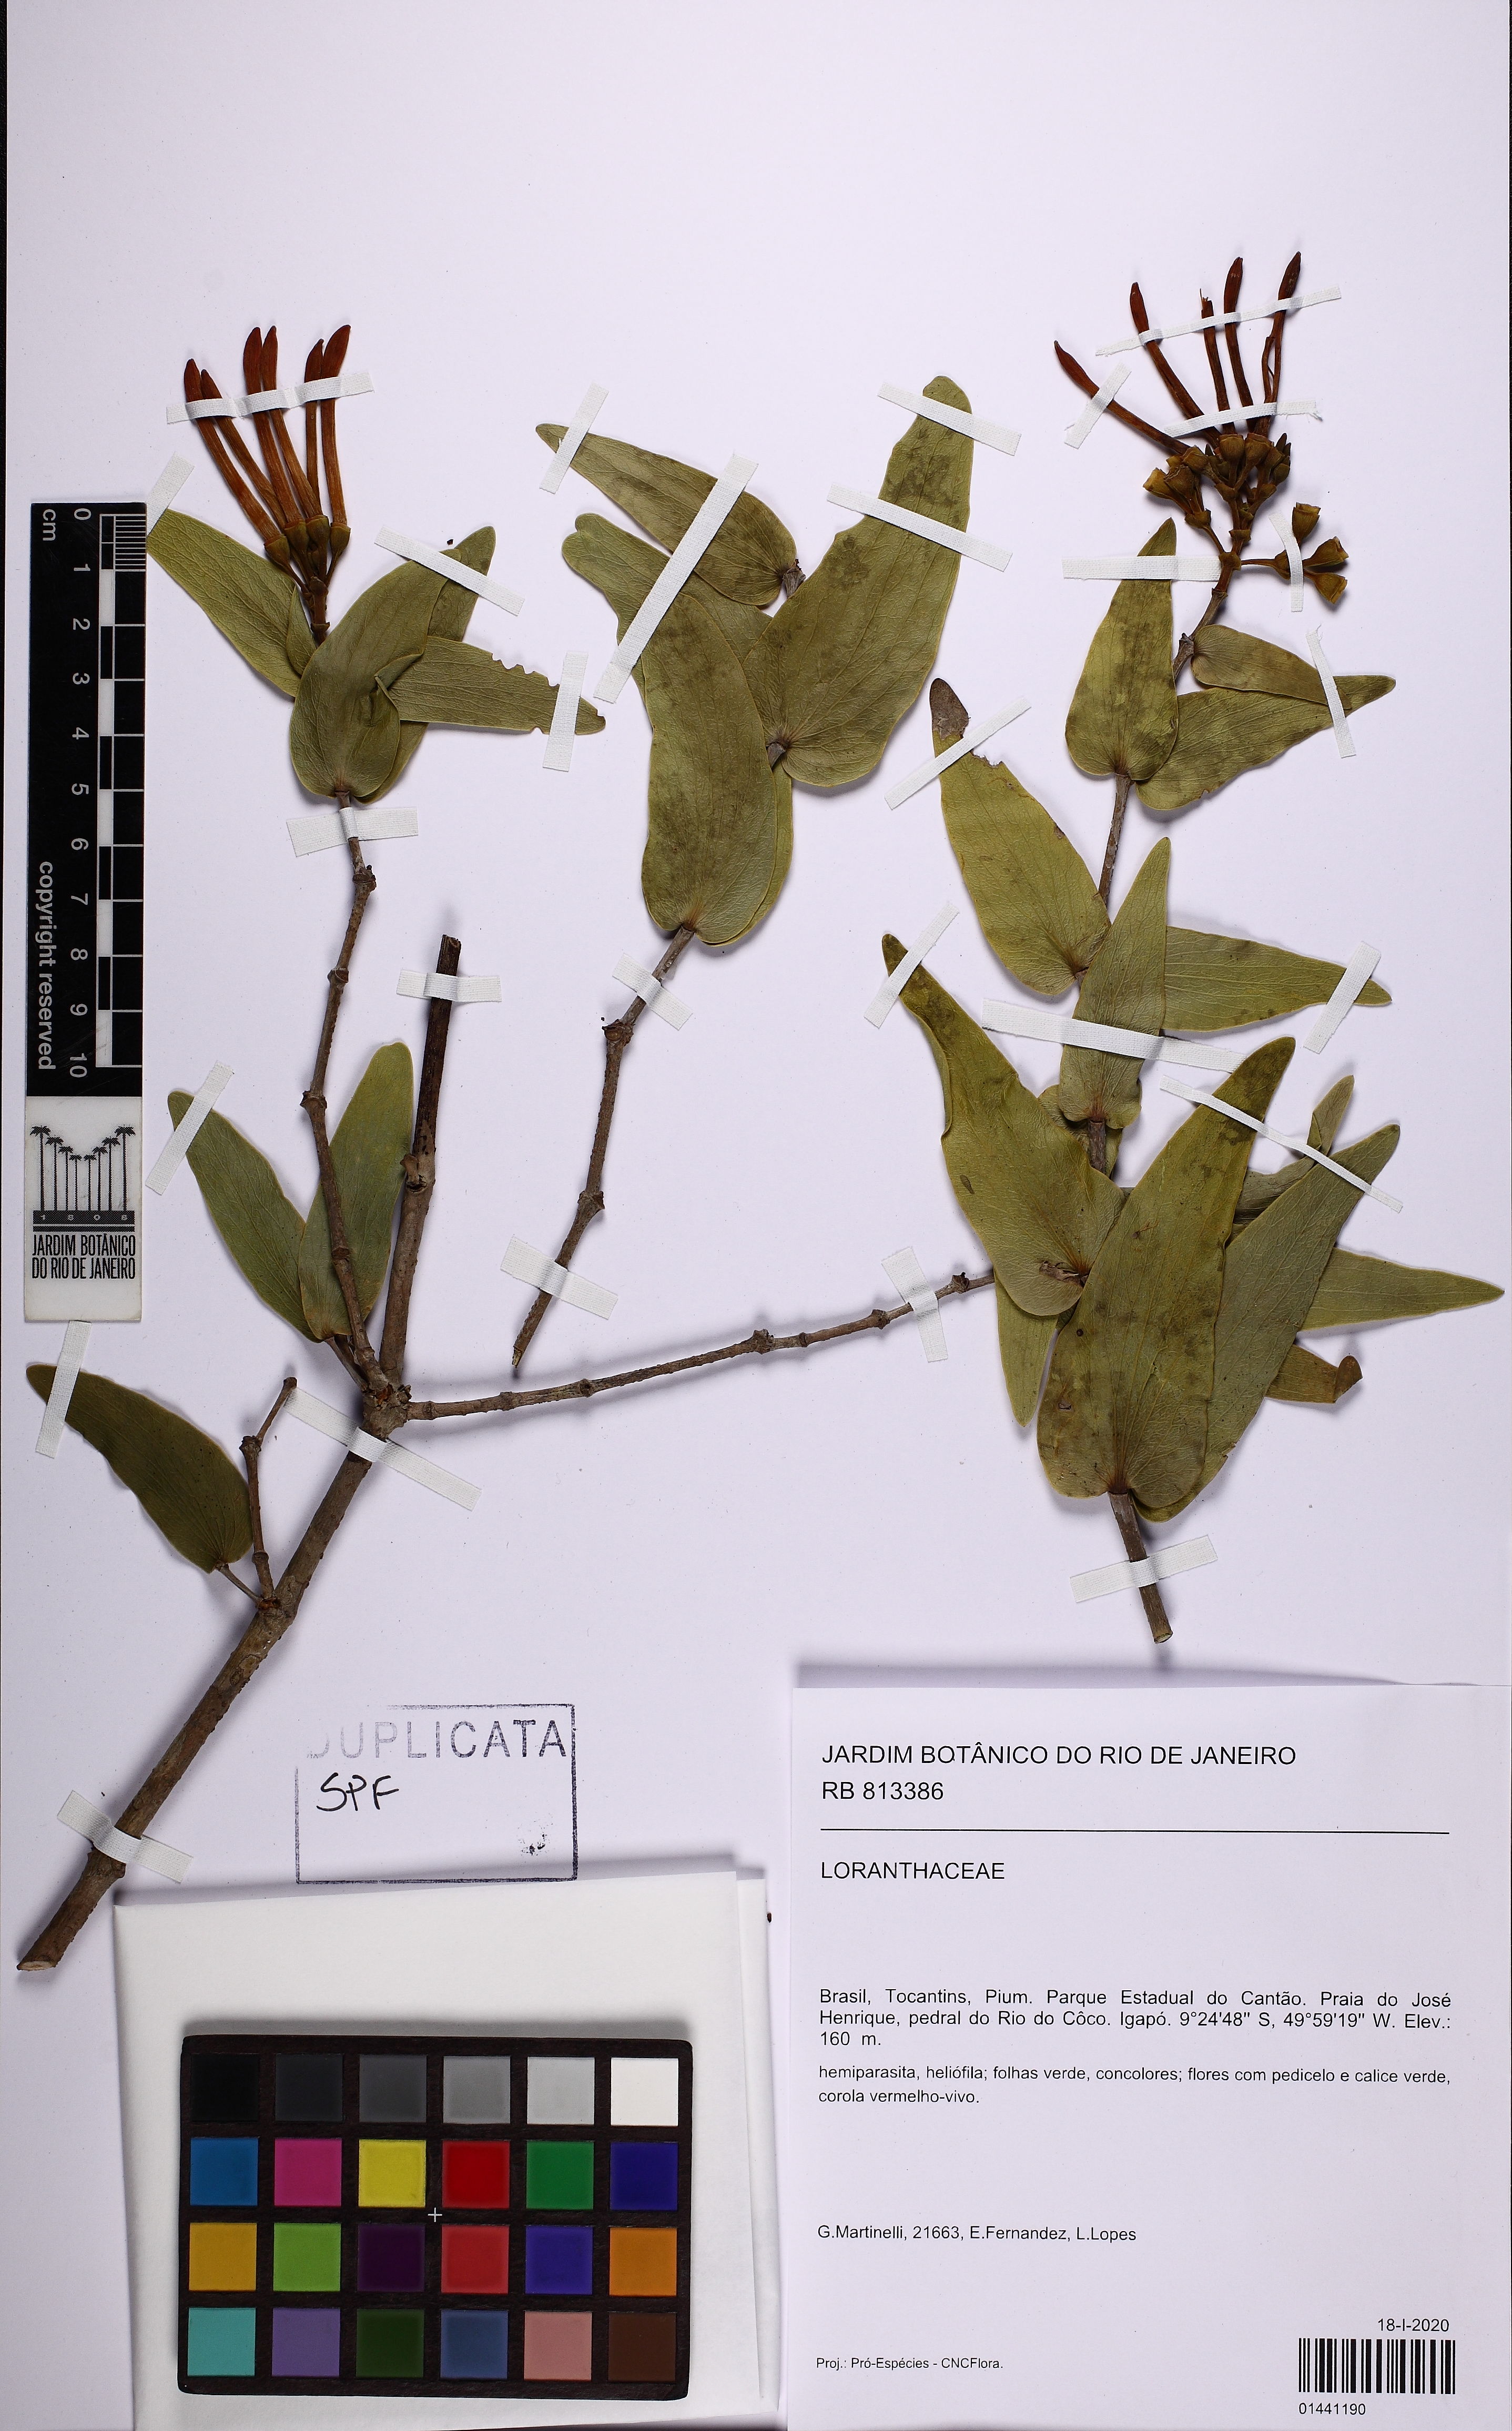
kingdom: Plantae
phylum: Tracheophyta
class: Magnoliopsida
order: Santalales
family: Loranthaceae
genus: Psittacanthus
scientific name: Psittacanthus cordatus
